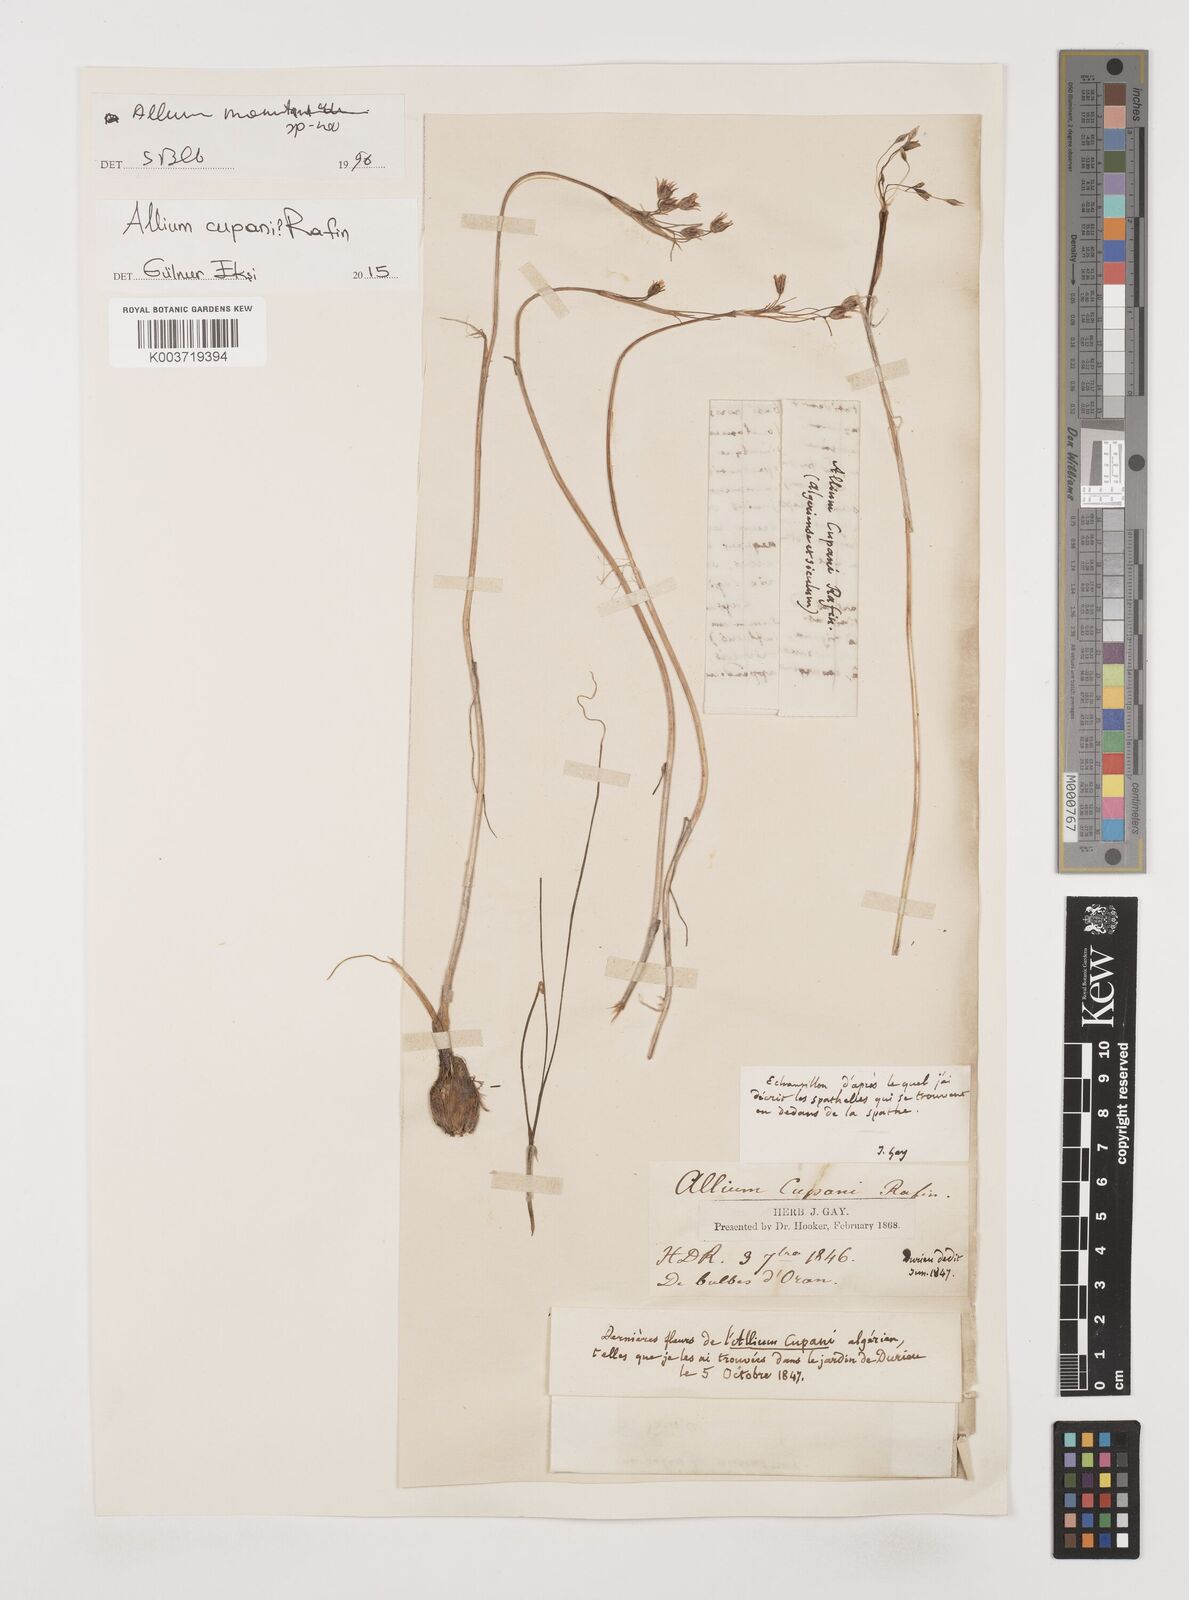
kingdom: Plantae
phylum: Tracheophyta
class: Liliopsida
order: Asparagales
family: Amaryllidaceae
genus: Allium
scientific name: Allium cupani
